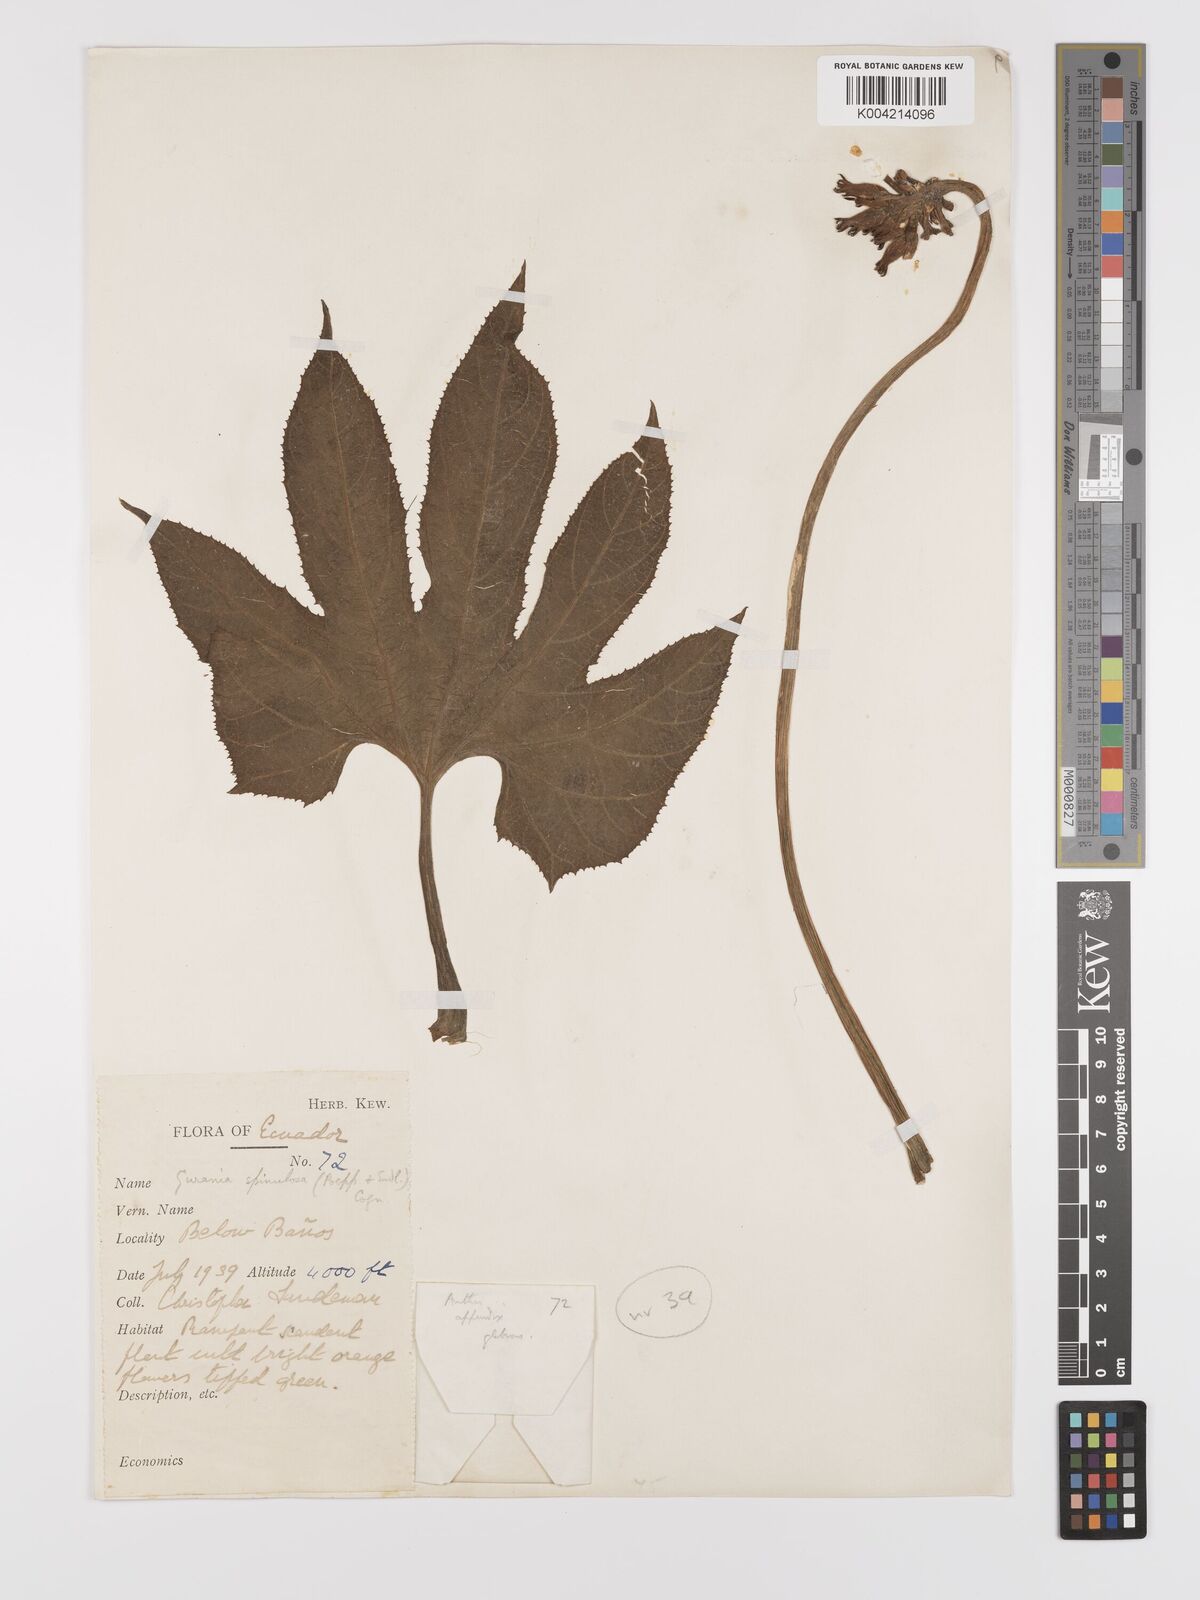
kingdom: Plantae
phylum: Tracheophyta
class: Magnoliopsida
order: Cucurbitales
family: Cucurbitaceae
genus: Gurania
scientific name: Gurania lobata
